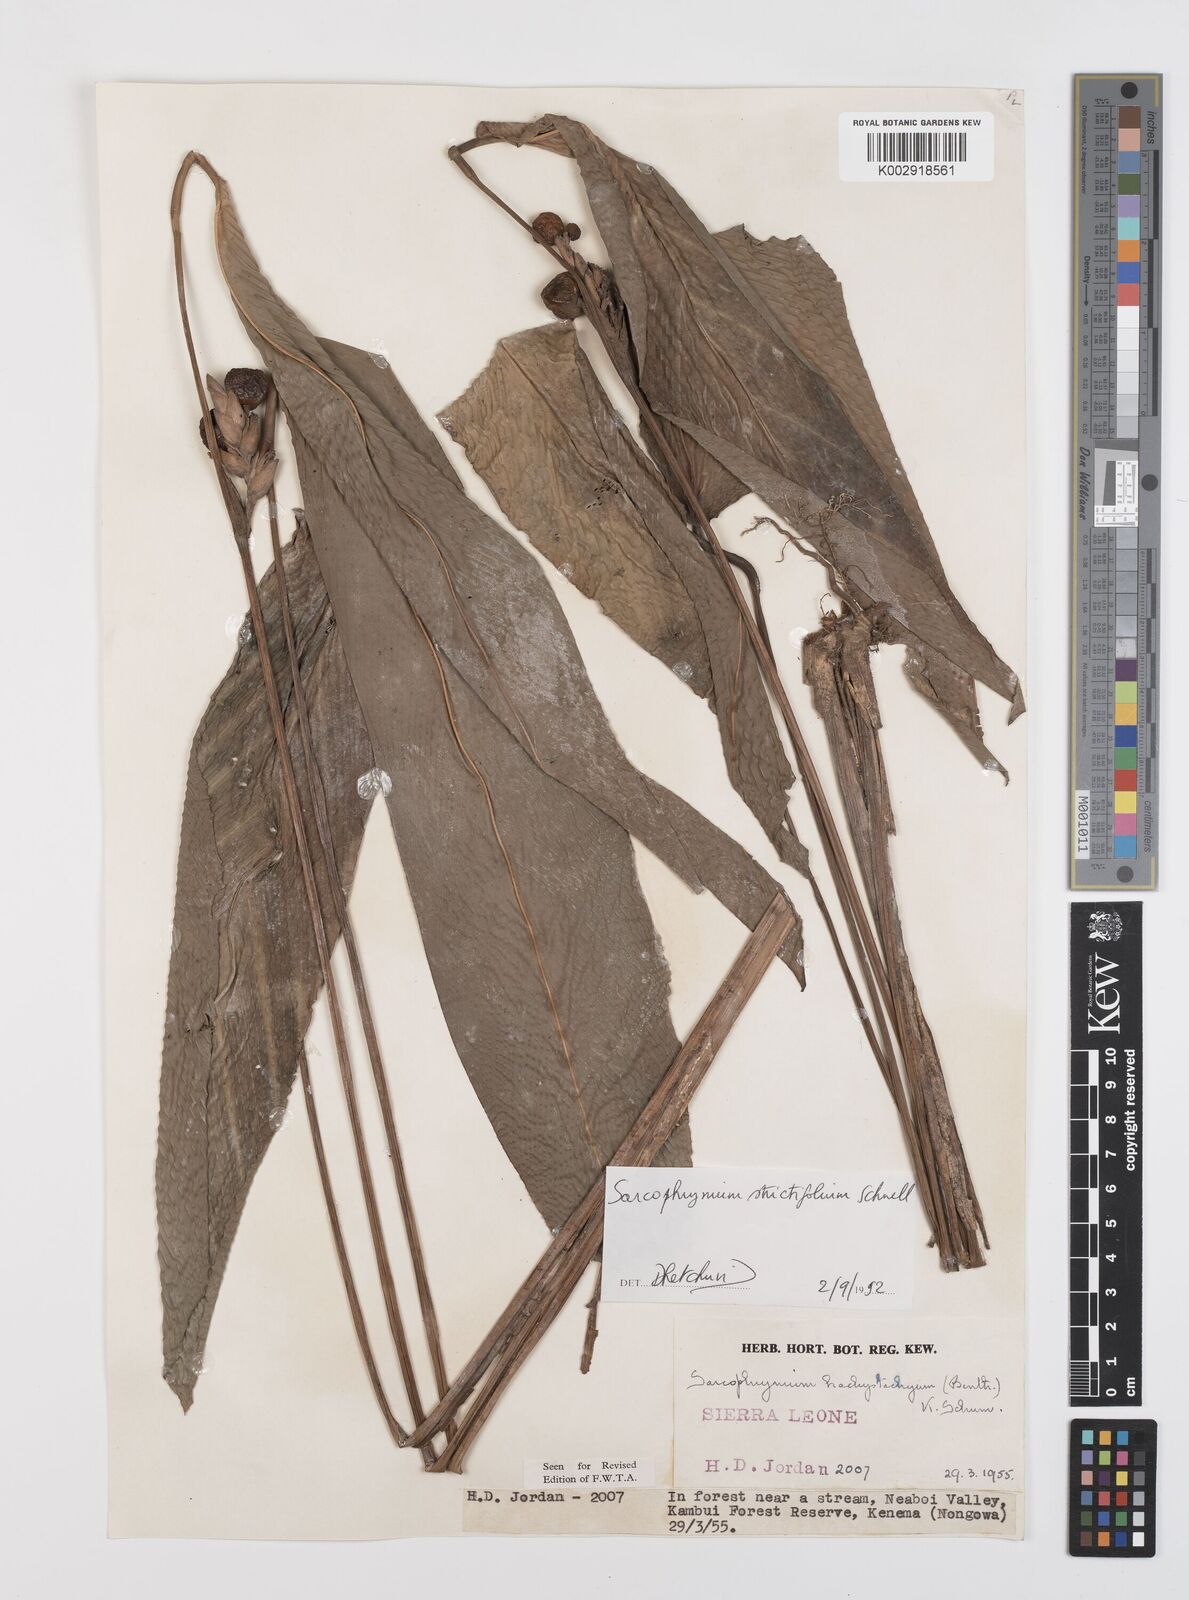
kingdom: Plantae
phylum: Tracheophyta
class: Liliopsida
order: Zingiberales
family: Marantaceae
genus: Sarcophrynium
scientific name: Sarcophrynium brachystachyum
